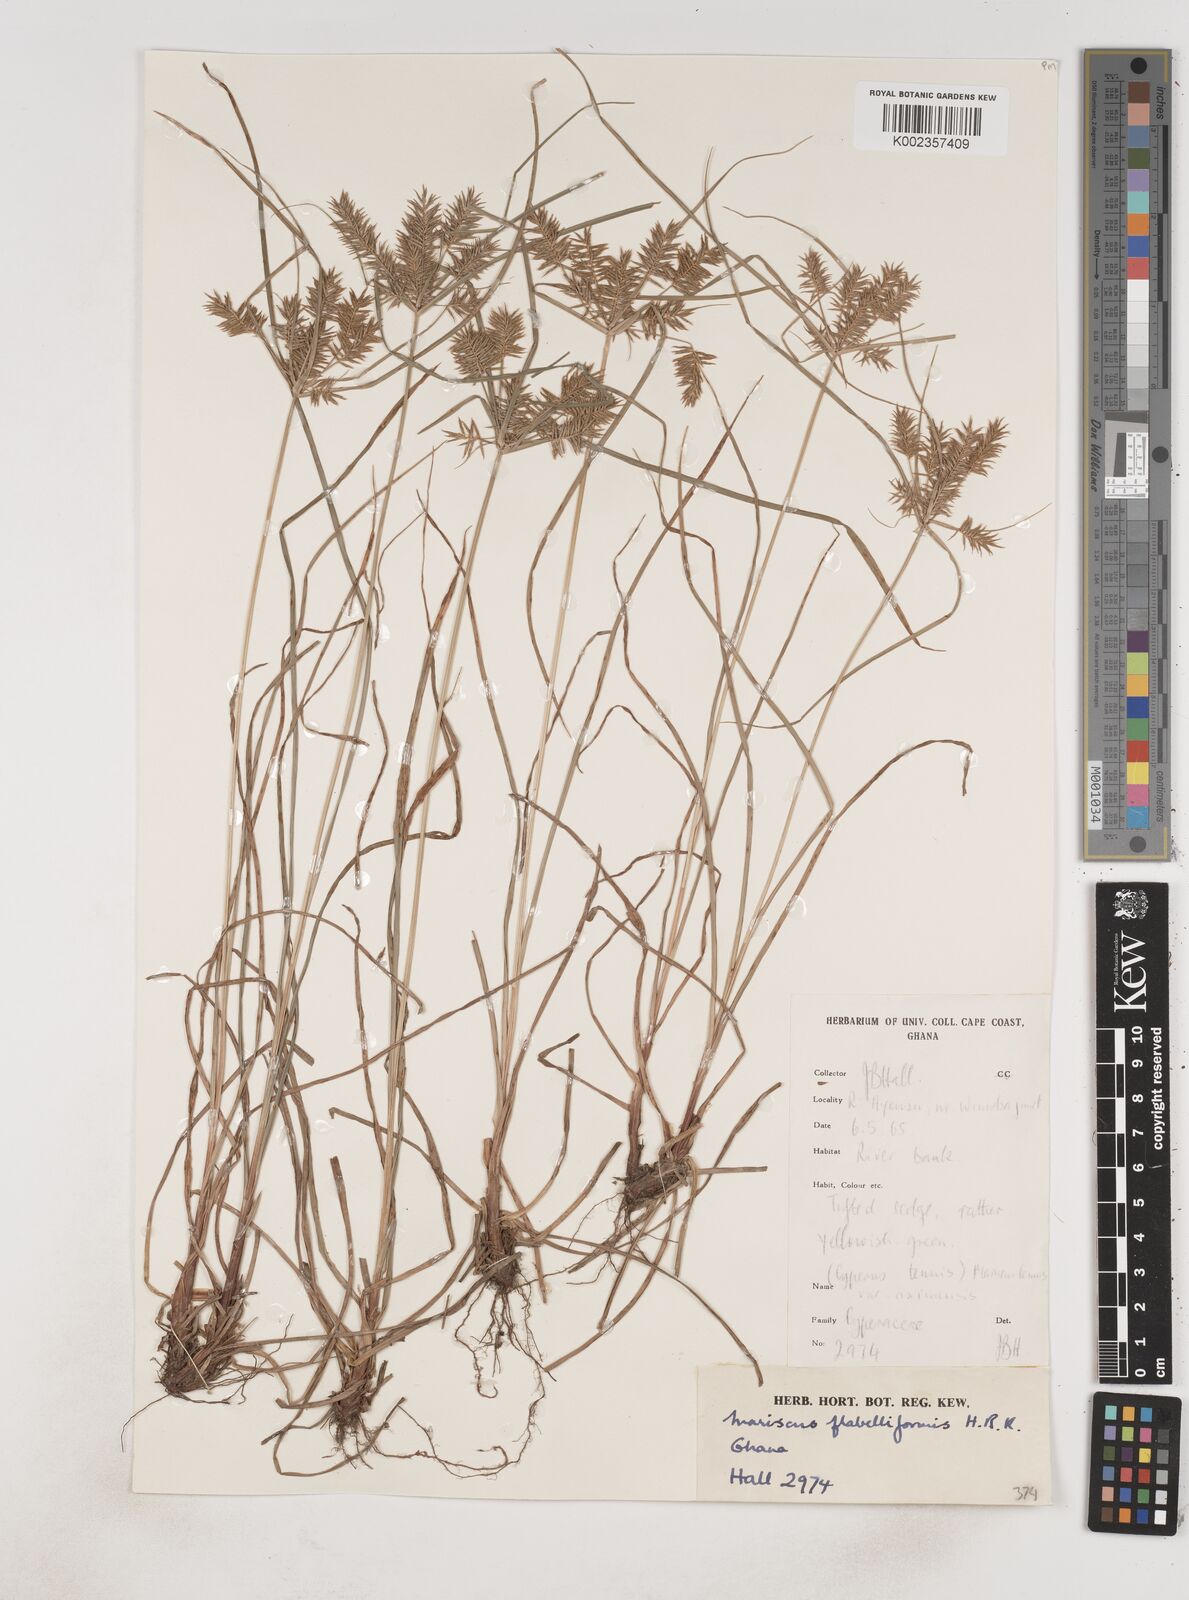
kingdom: Plantae
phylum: Tracheophyta
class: Liliopsida
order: Poales
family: Cyperaceae
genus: Cyperus
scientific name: Cyperus tenuis
